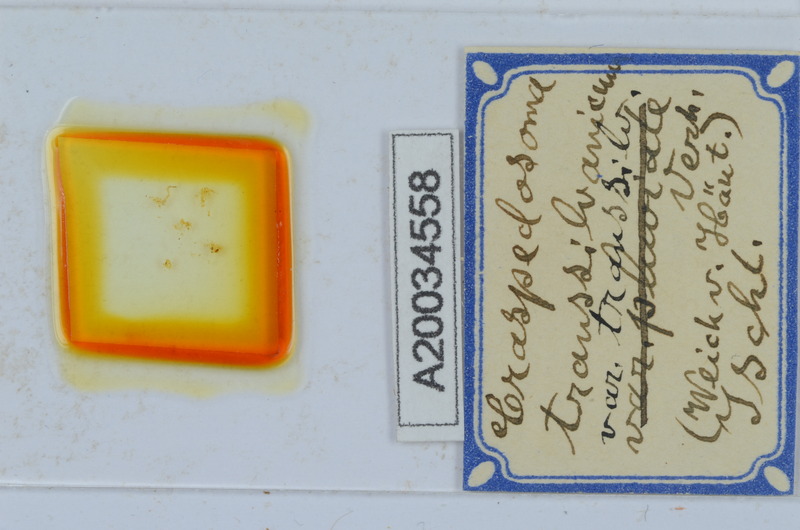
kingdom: Animalia
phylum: Arthropoda
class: Diplopoda
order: Chordeumatida
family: Craspedosomatidae
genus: Craspedosoma
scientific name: Craspedosoma rawlinsii
